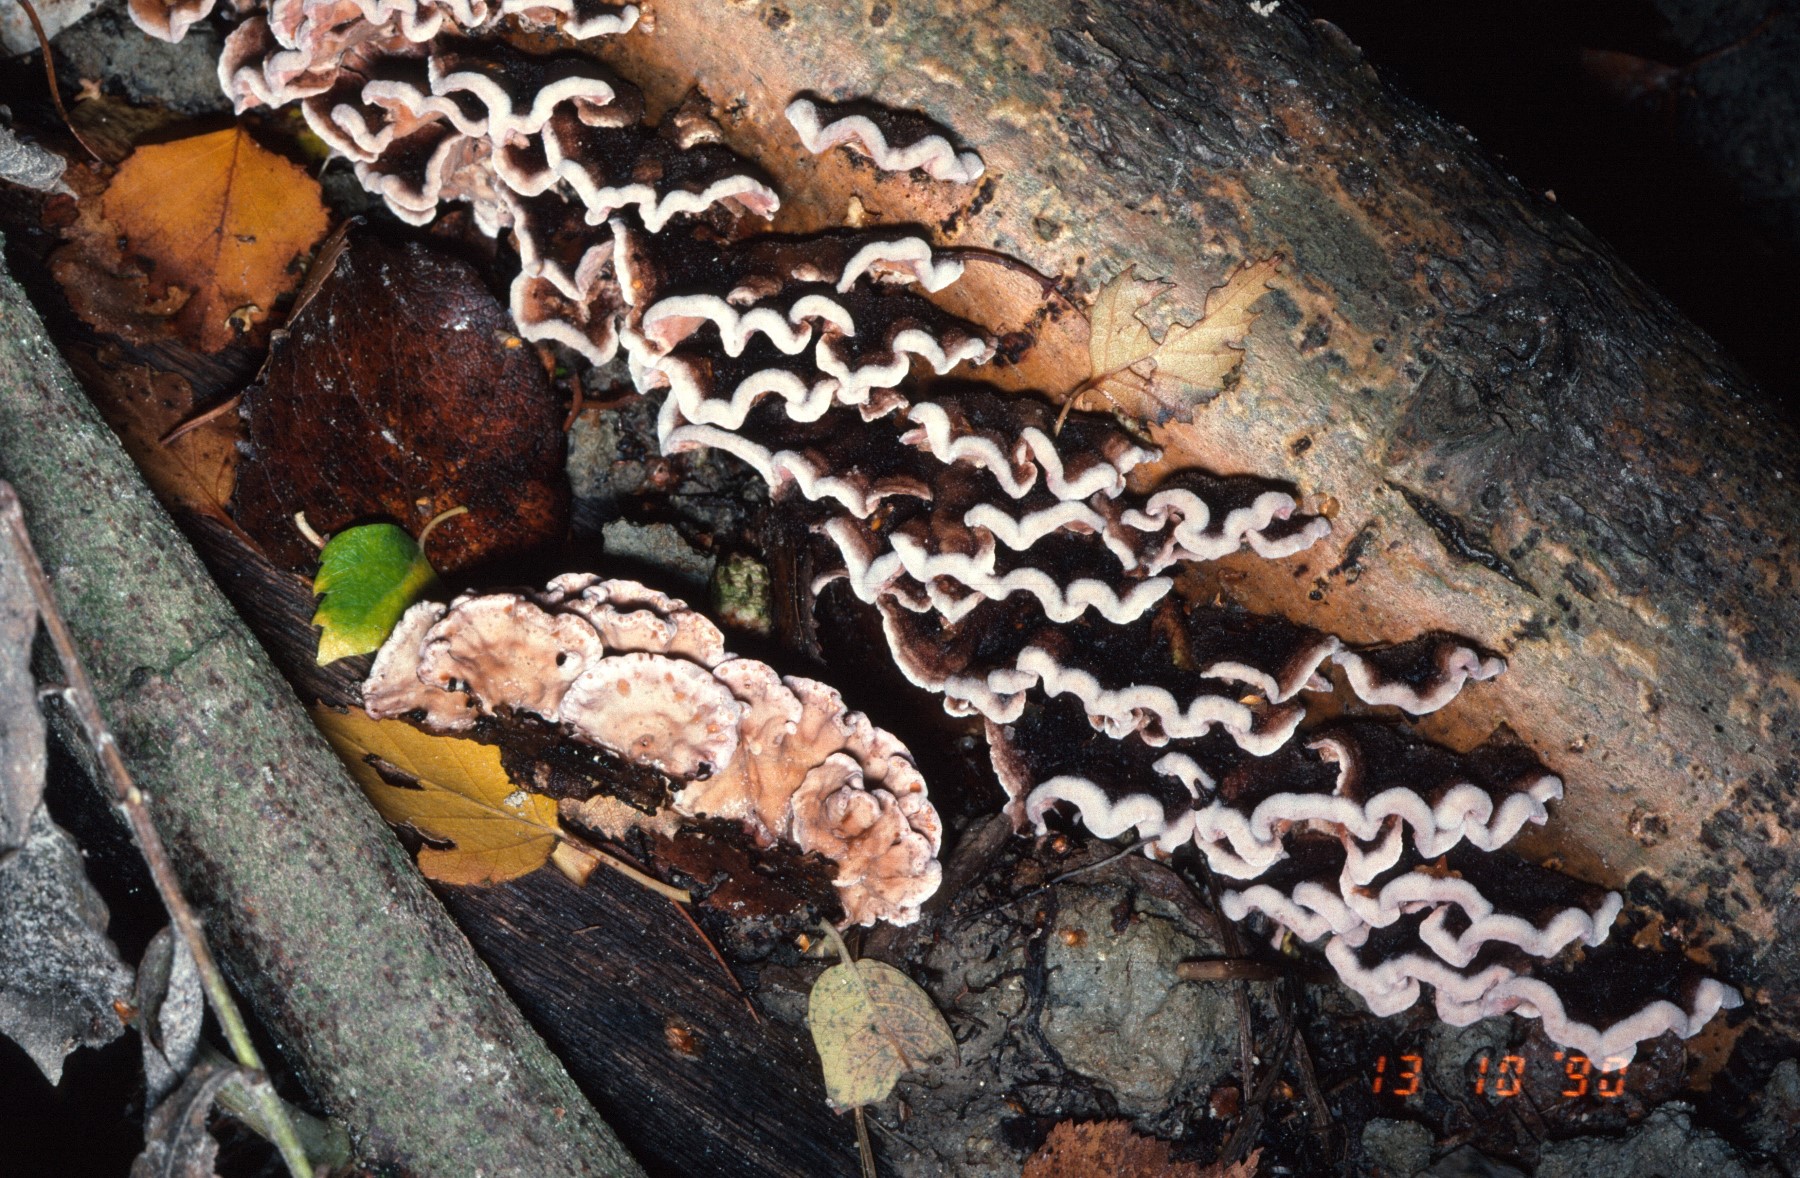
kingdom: Fungi
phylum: Basidiomycota
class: Agaricomycetes
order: Agaricales
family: Cyphellaceae
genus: Chondrostereum
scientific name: Chondrostereum purpureum
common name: purpurlædersvamp
